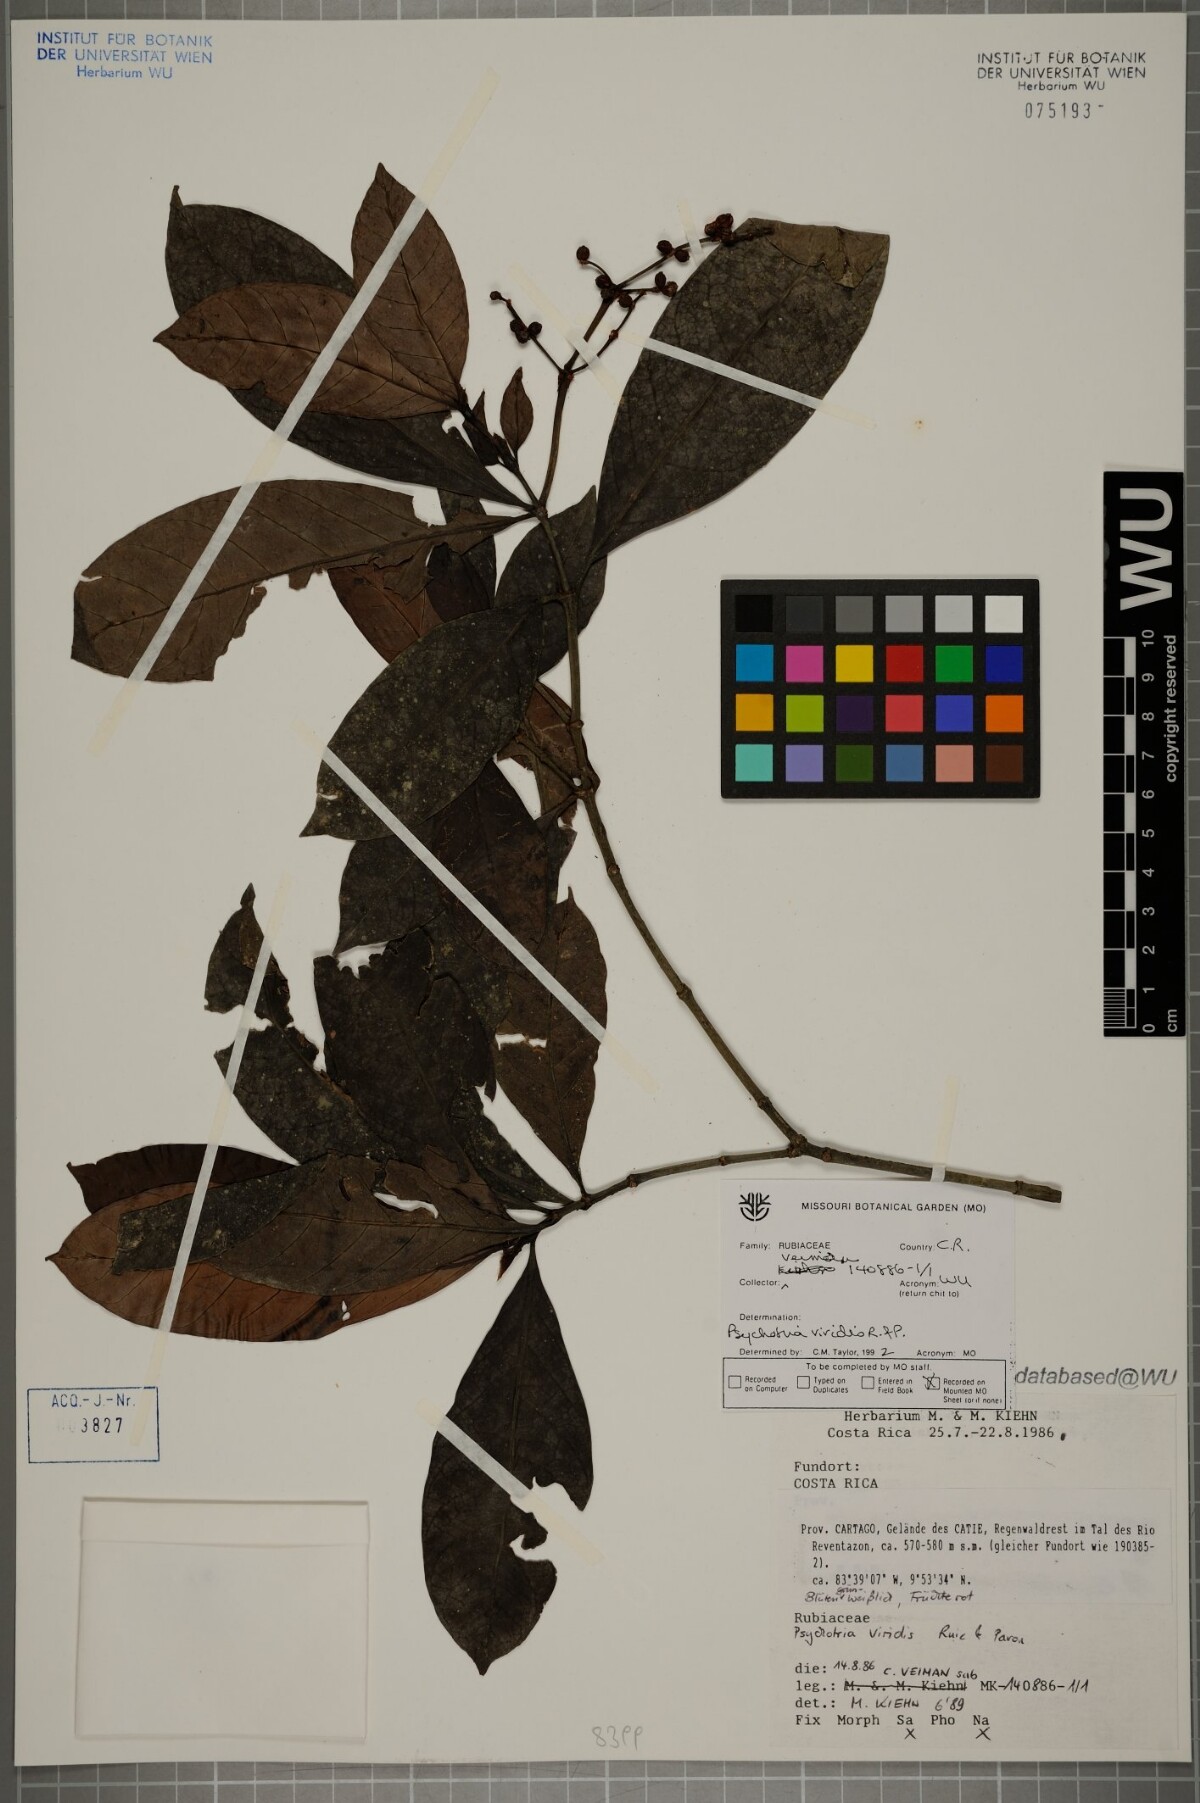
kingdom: Plantae
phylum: Tracheophyta
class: Magnoliopsida
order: Gentianales
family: Rubiaceae
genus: Psychotria
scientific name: Psychotria viridis
